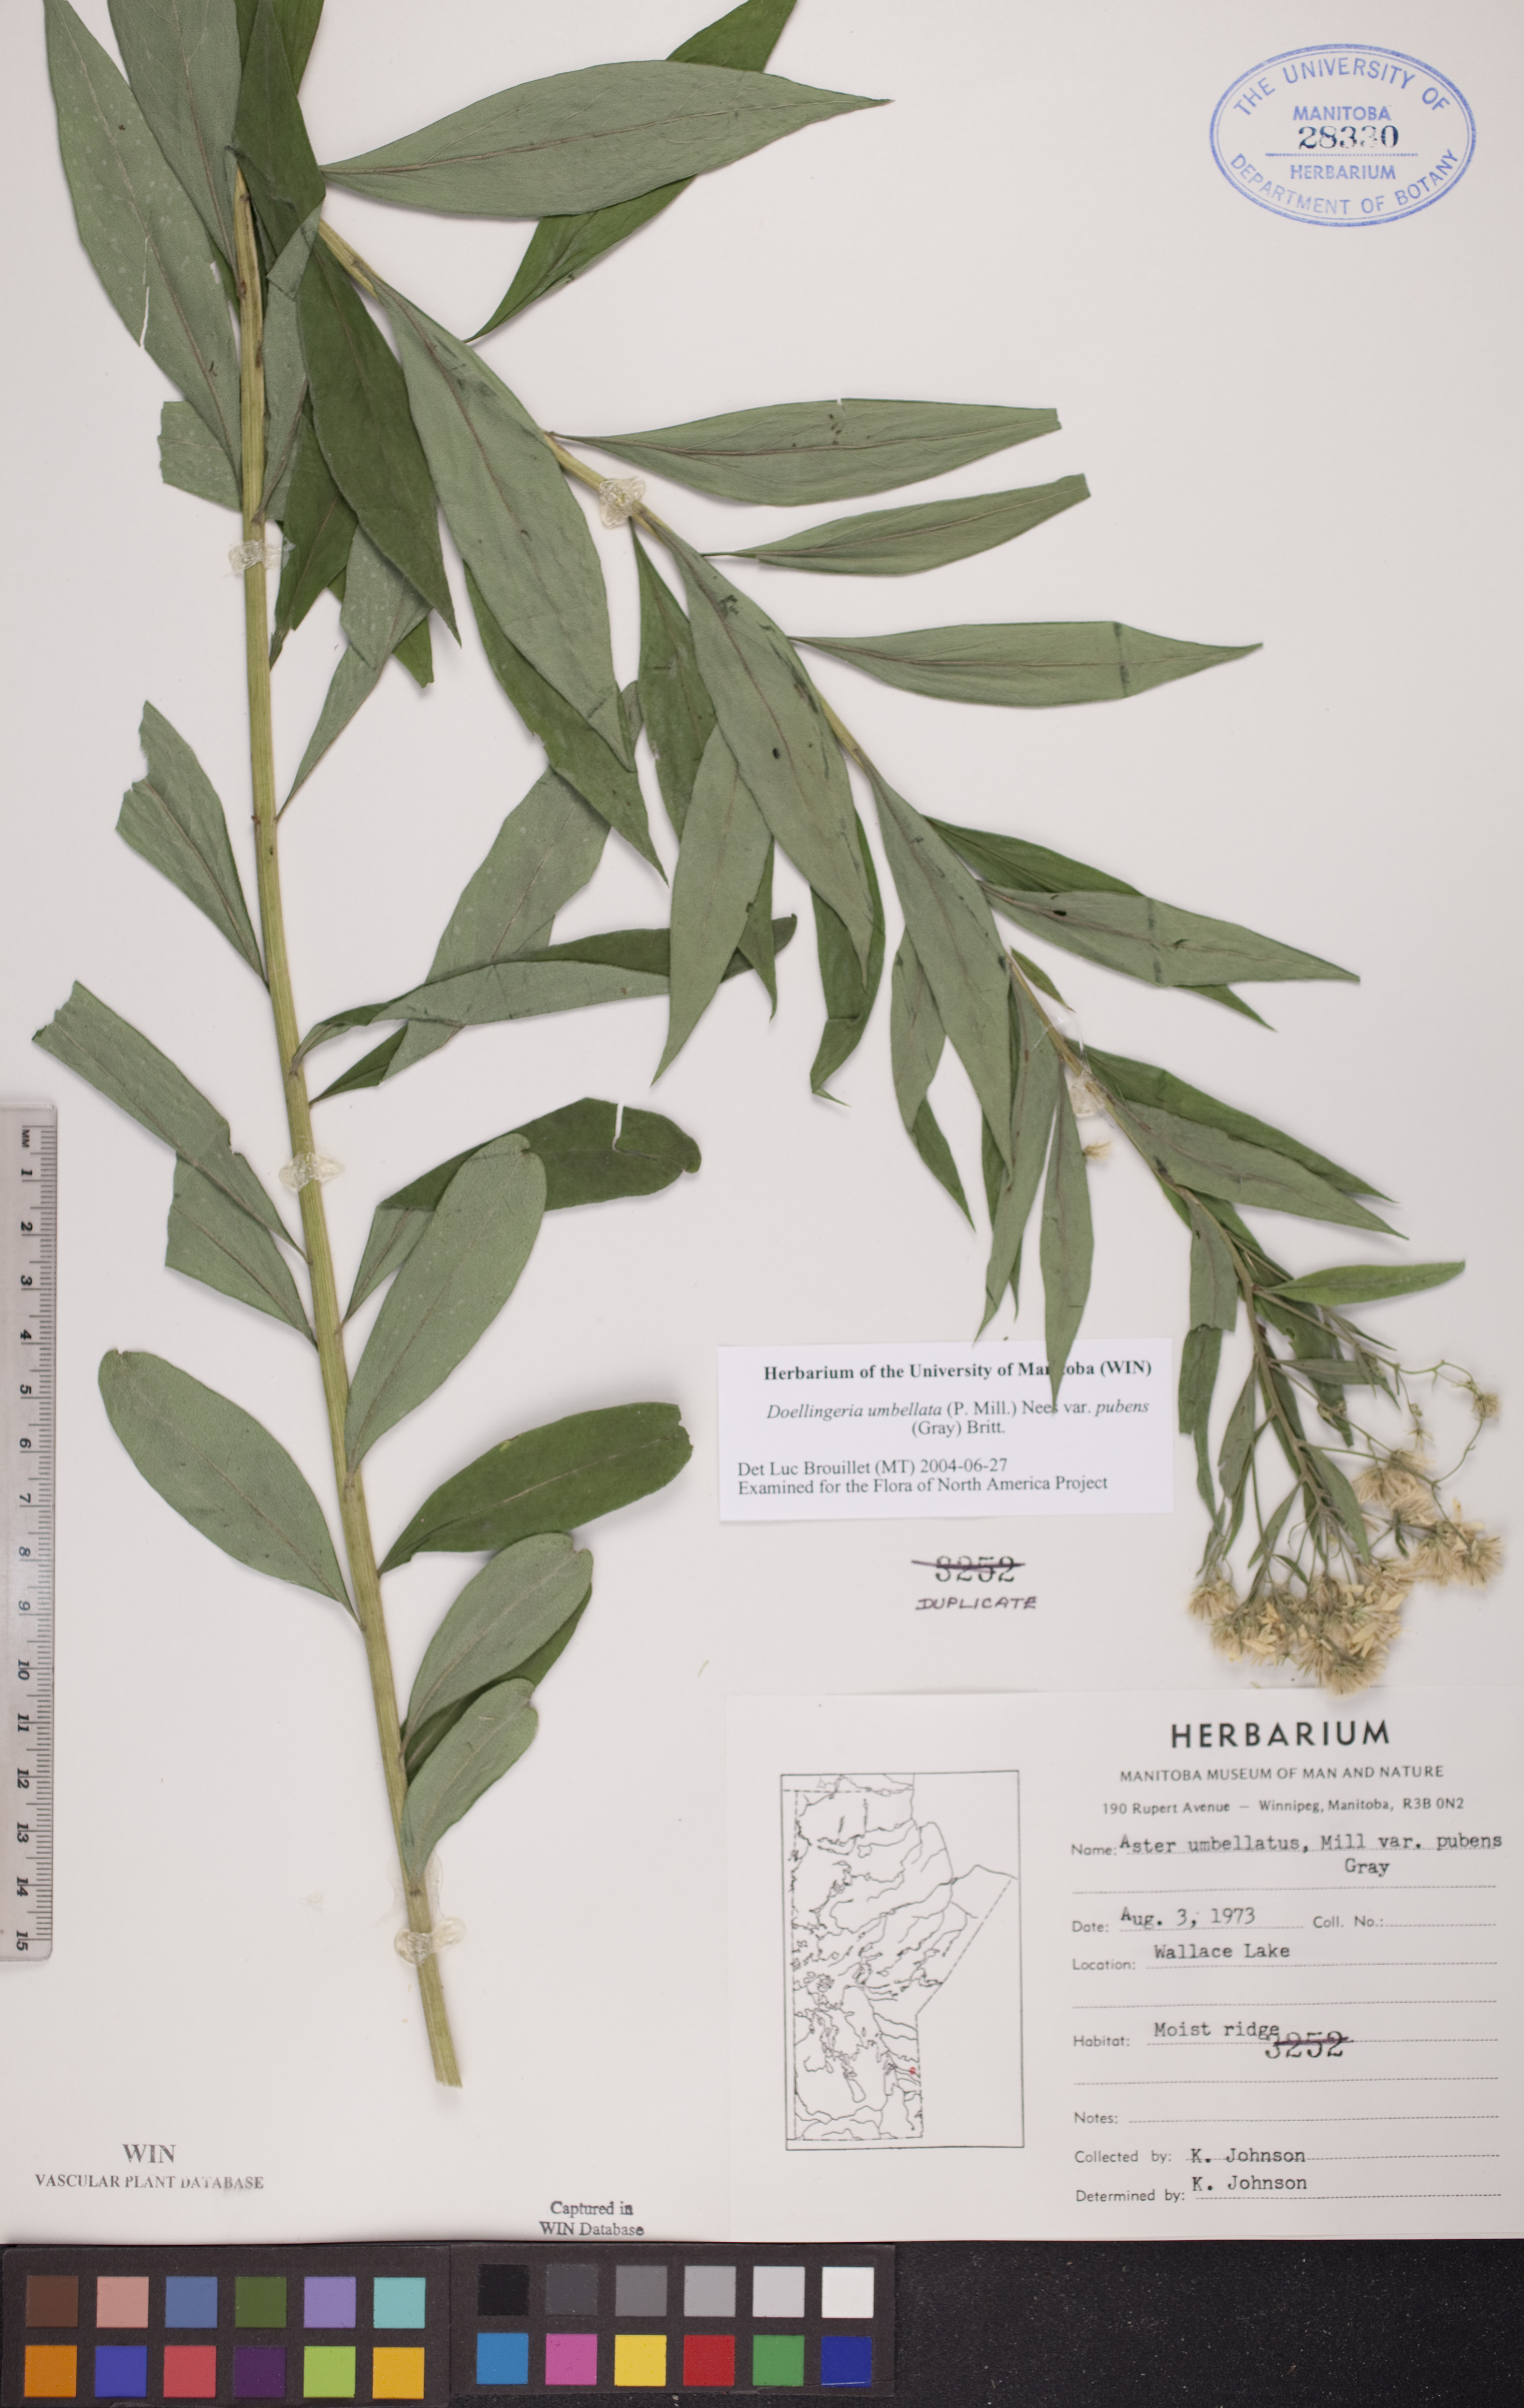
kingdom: Plantae
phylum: Tracheophyta
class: Magnoliopsida
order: Asterales
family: Asteraceae
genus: Doellingeria
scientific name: Doellingeria umbellata
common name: Flat-top white aster
